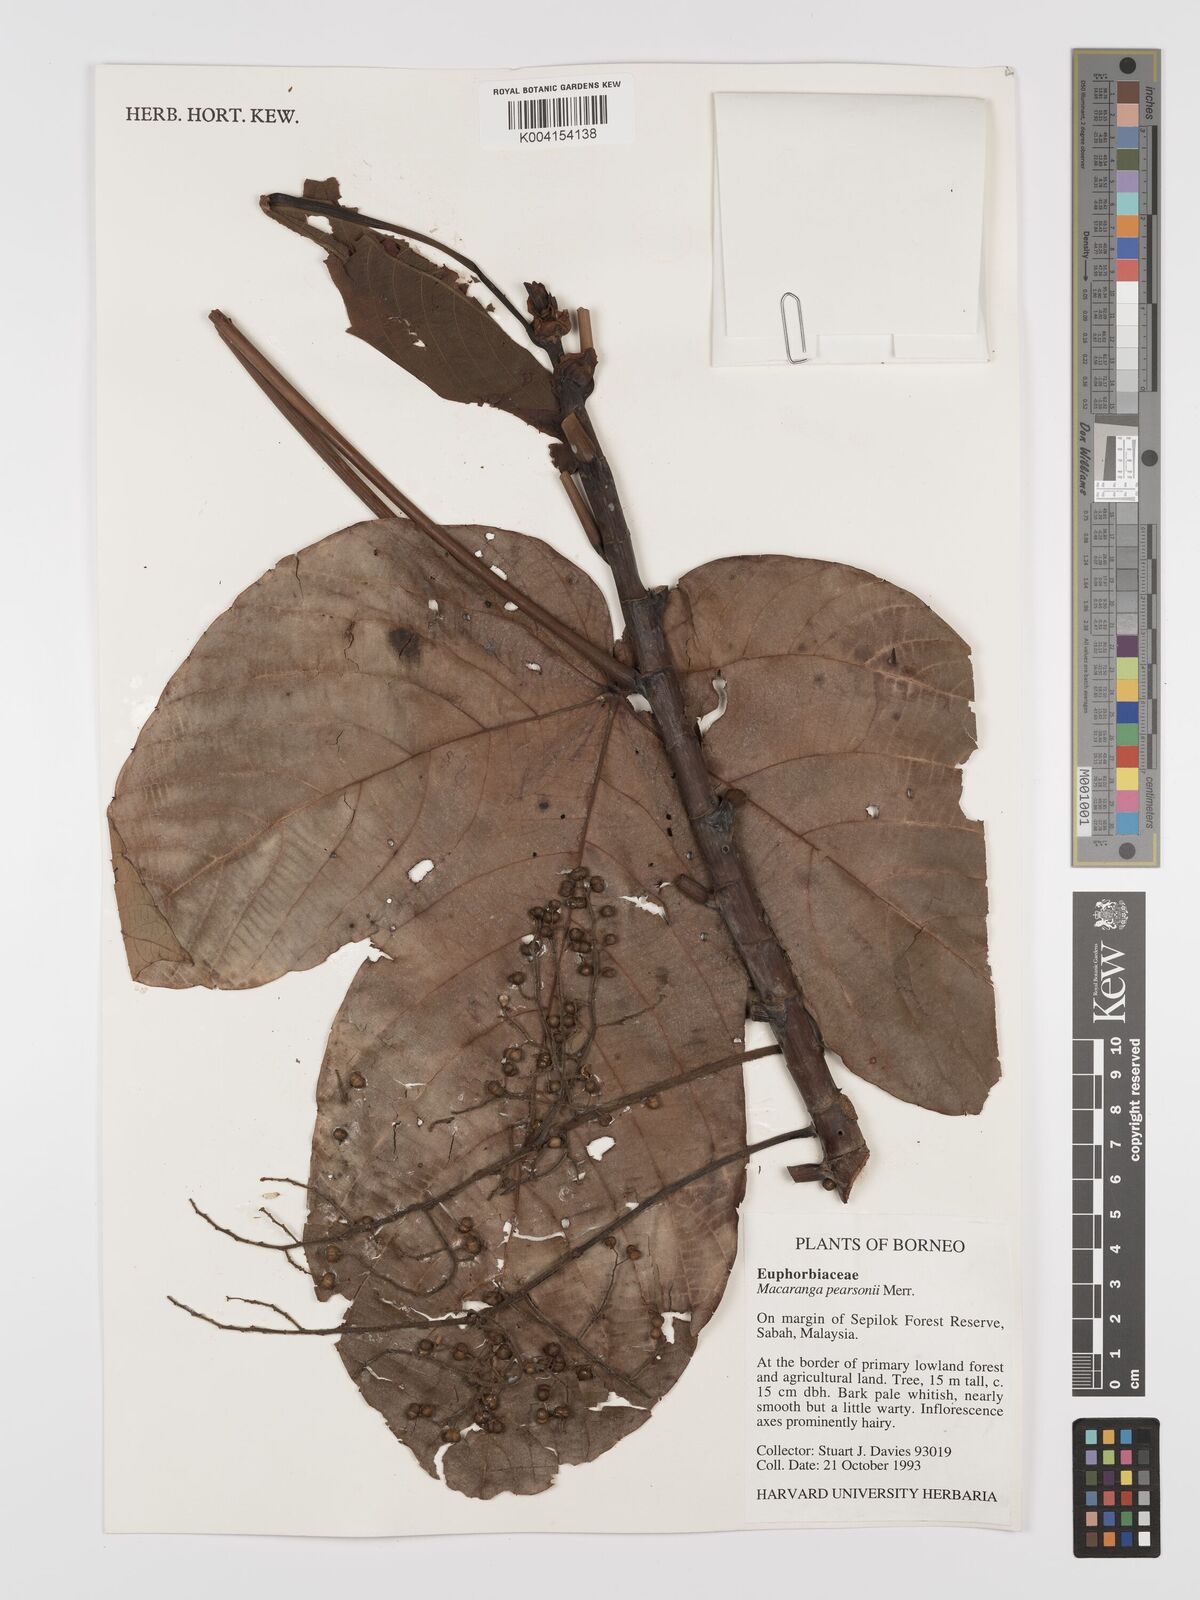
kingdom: Plantae
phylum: Tracheophyta
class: Magnoliopsida
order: Malpighiales
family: Euphorbiaceae
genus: Macaranga
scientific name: Macaranga pearsonii
